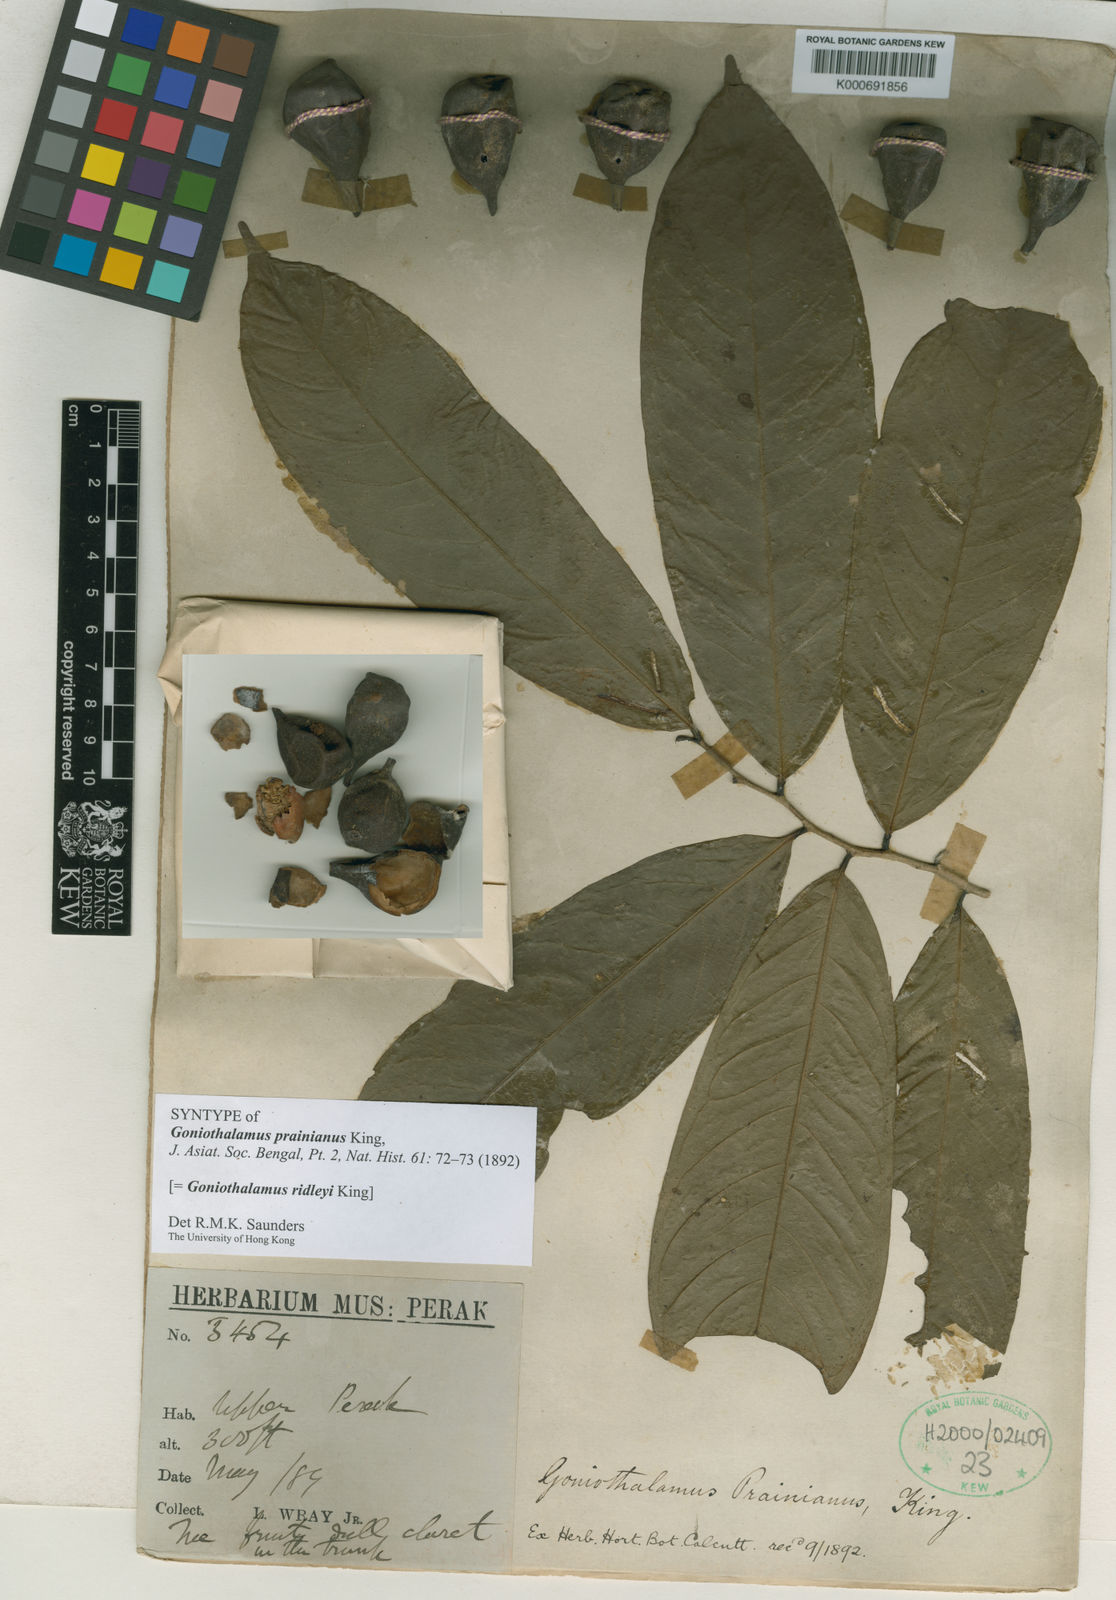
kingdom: Plantae
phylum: Tracheophyta
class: Magnoliopsida
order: Magnoliales
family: Annonaceae
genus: Goniothalamus
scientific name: Goniothalamus ridleyi
